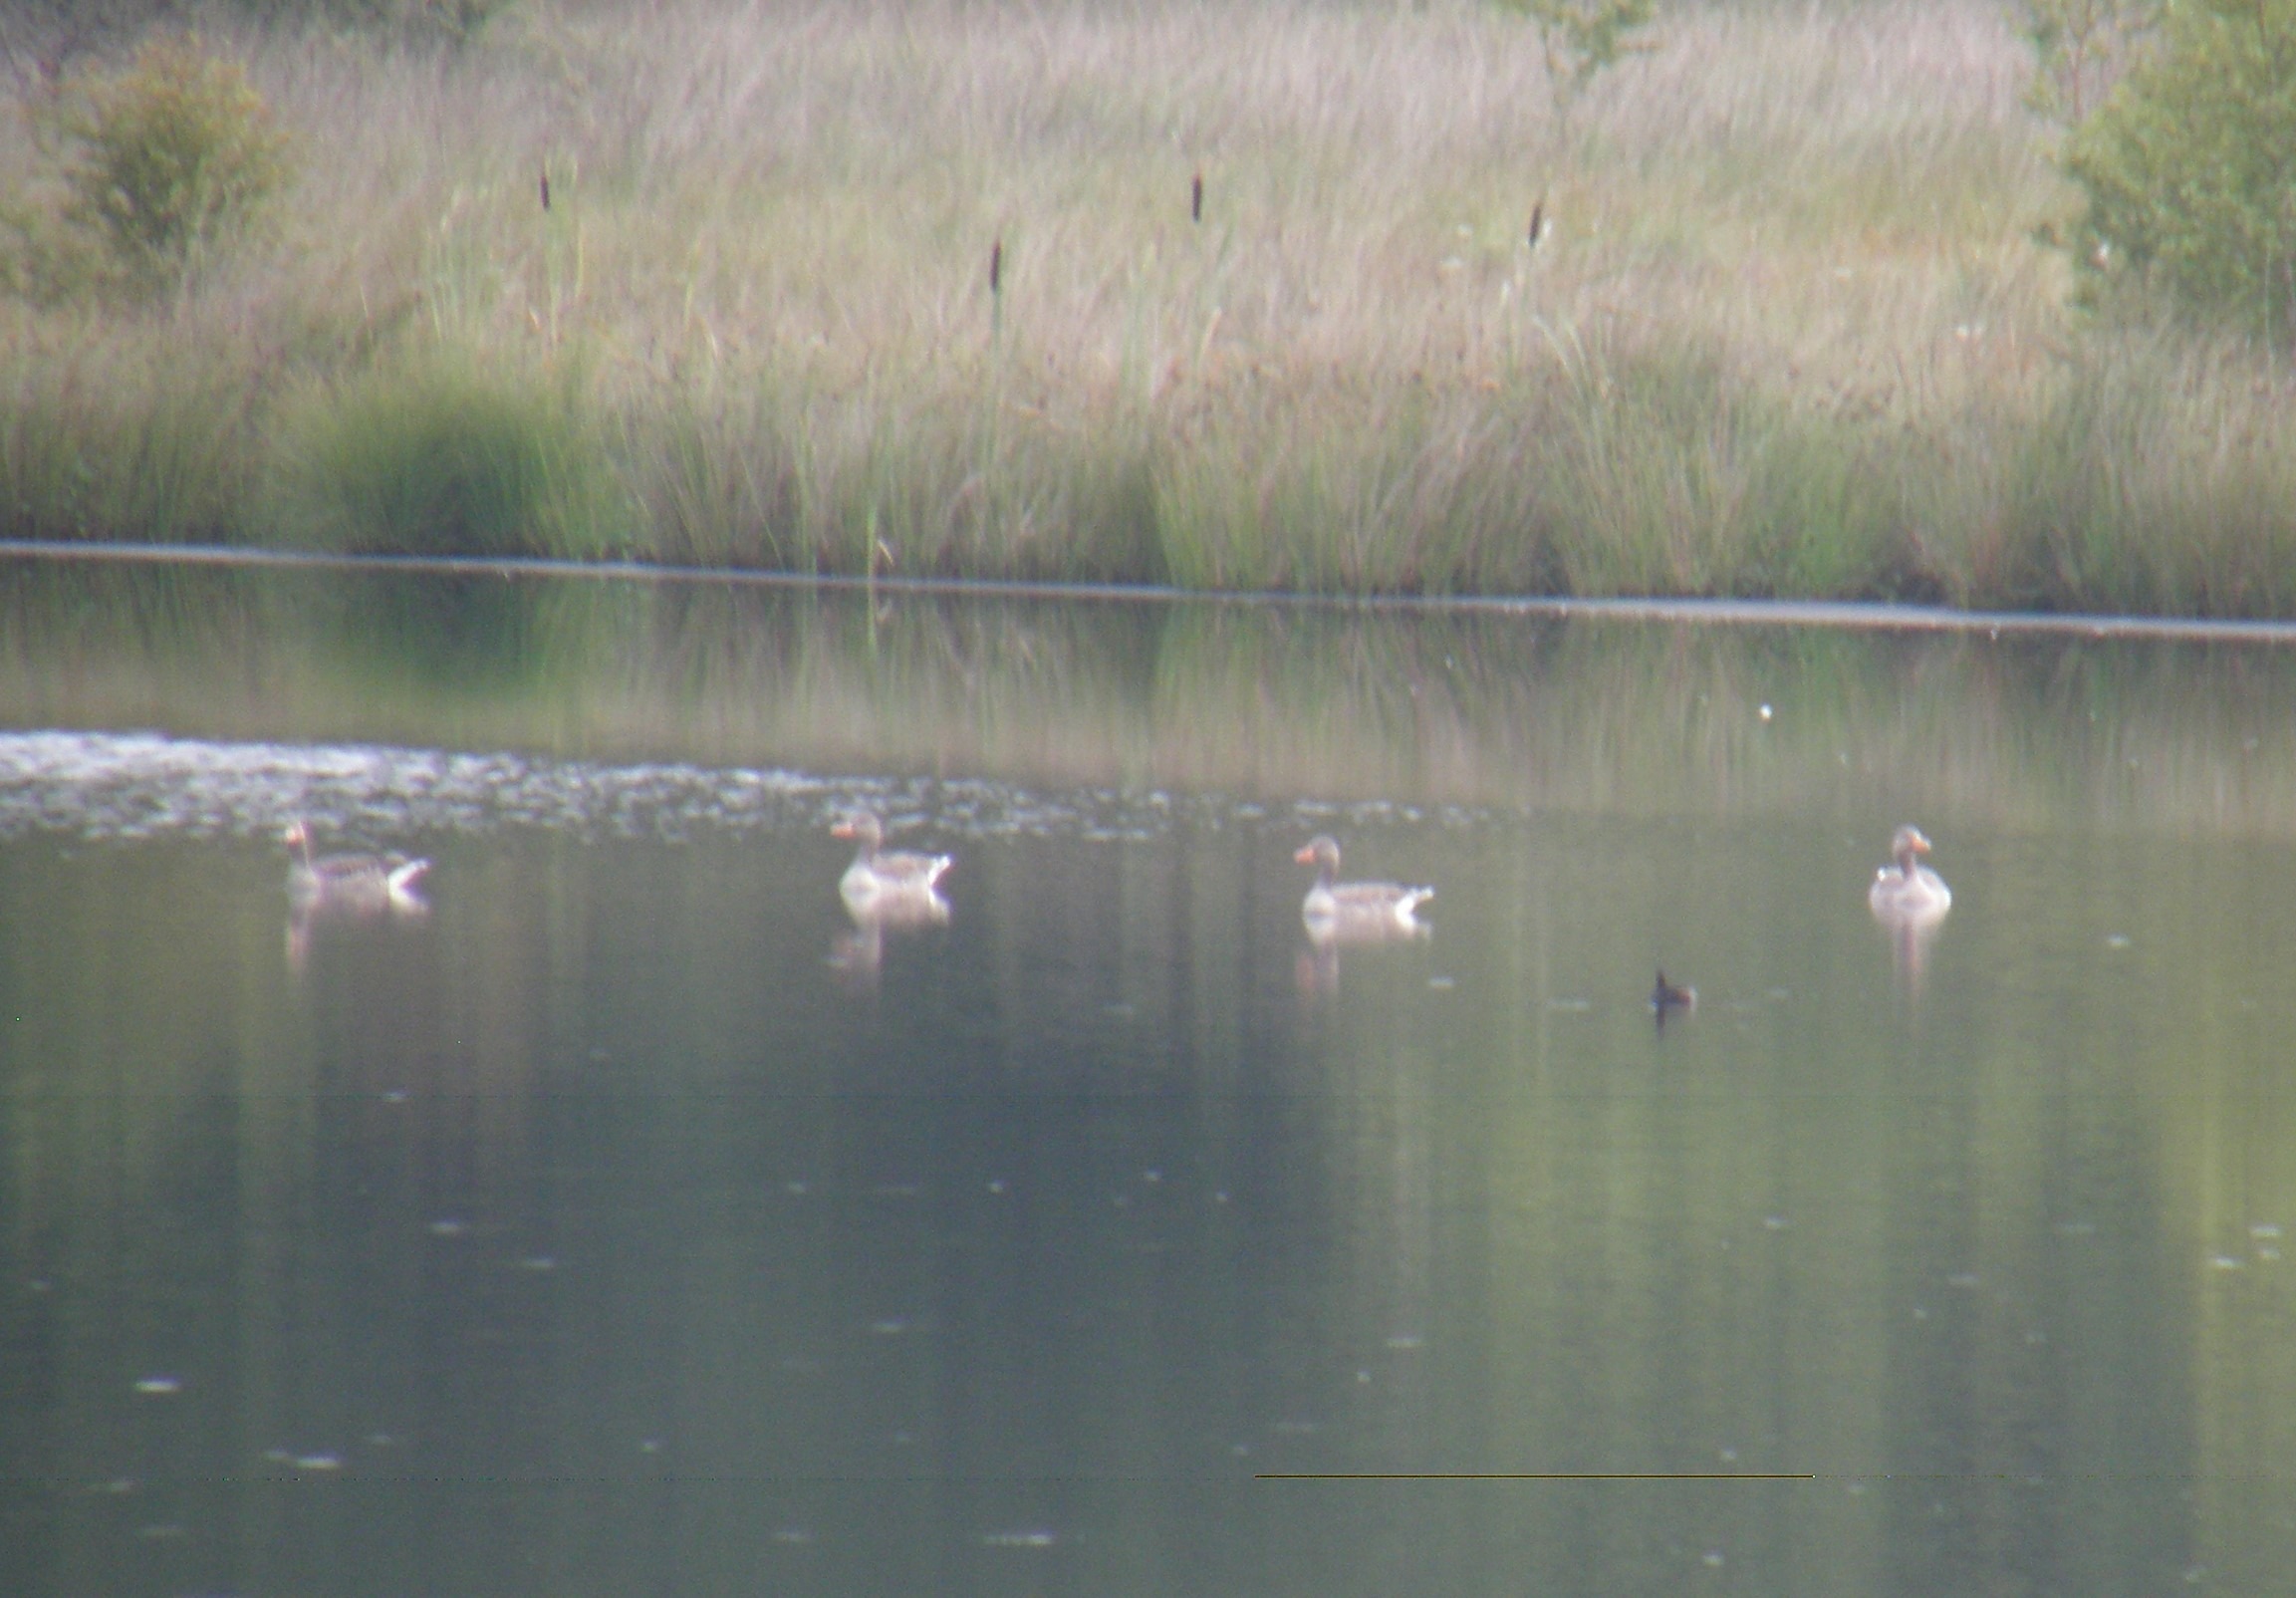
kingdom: Animalia
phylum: Chordata
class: Aves
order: Anseriformes
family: Anatidae
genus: Anser
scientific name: Anser anser
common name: Grågås
